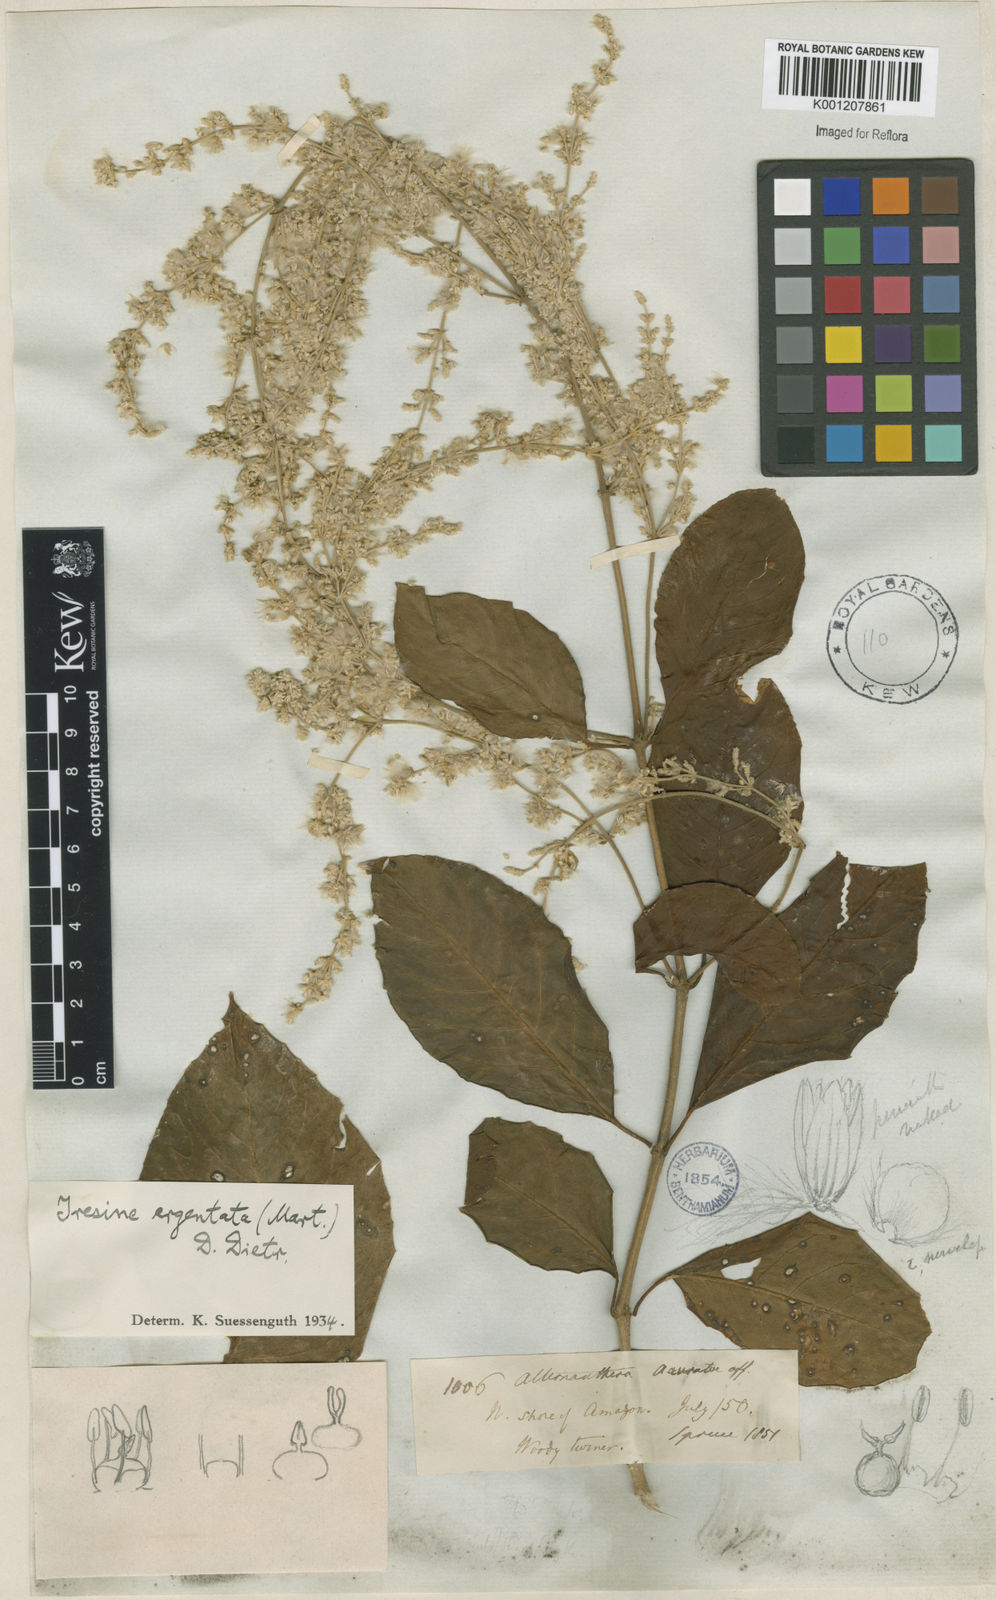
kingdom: Plantae
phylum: Tracheophyta
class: Magnoliopsida
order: Caryophyllales
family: Amaranthaceae
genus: Pedersenia
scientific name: Pedersenia argentata
